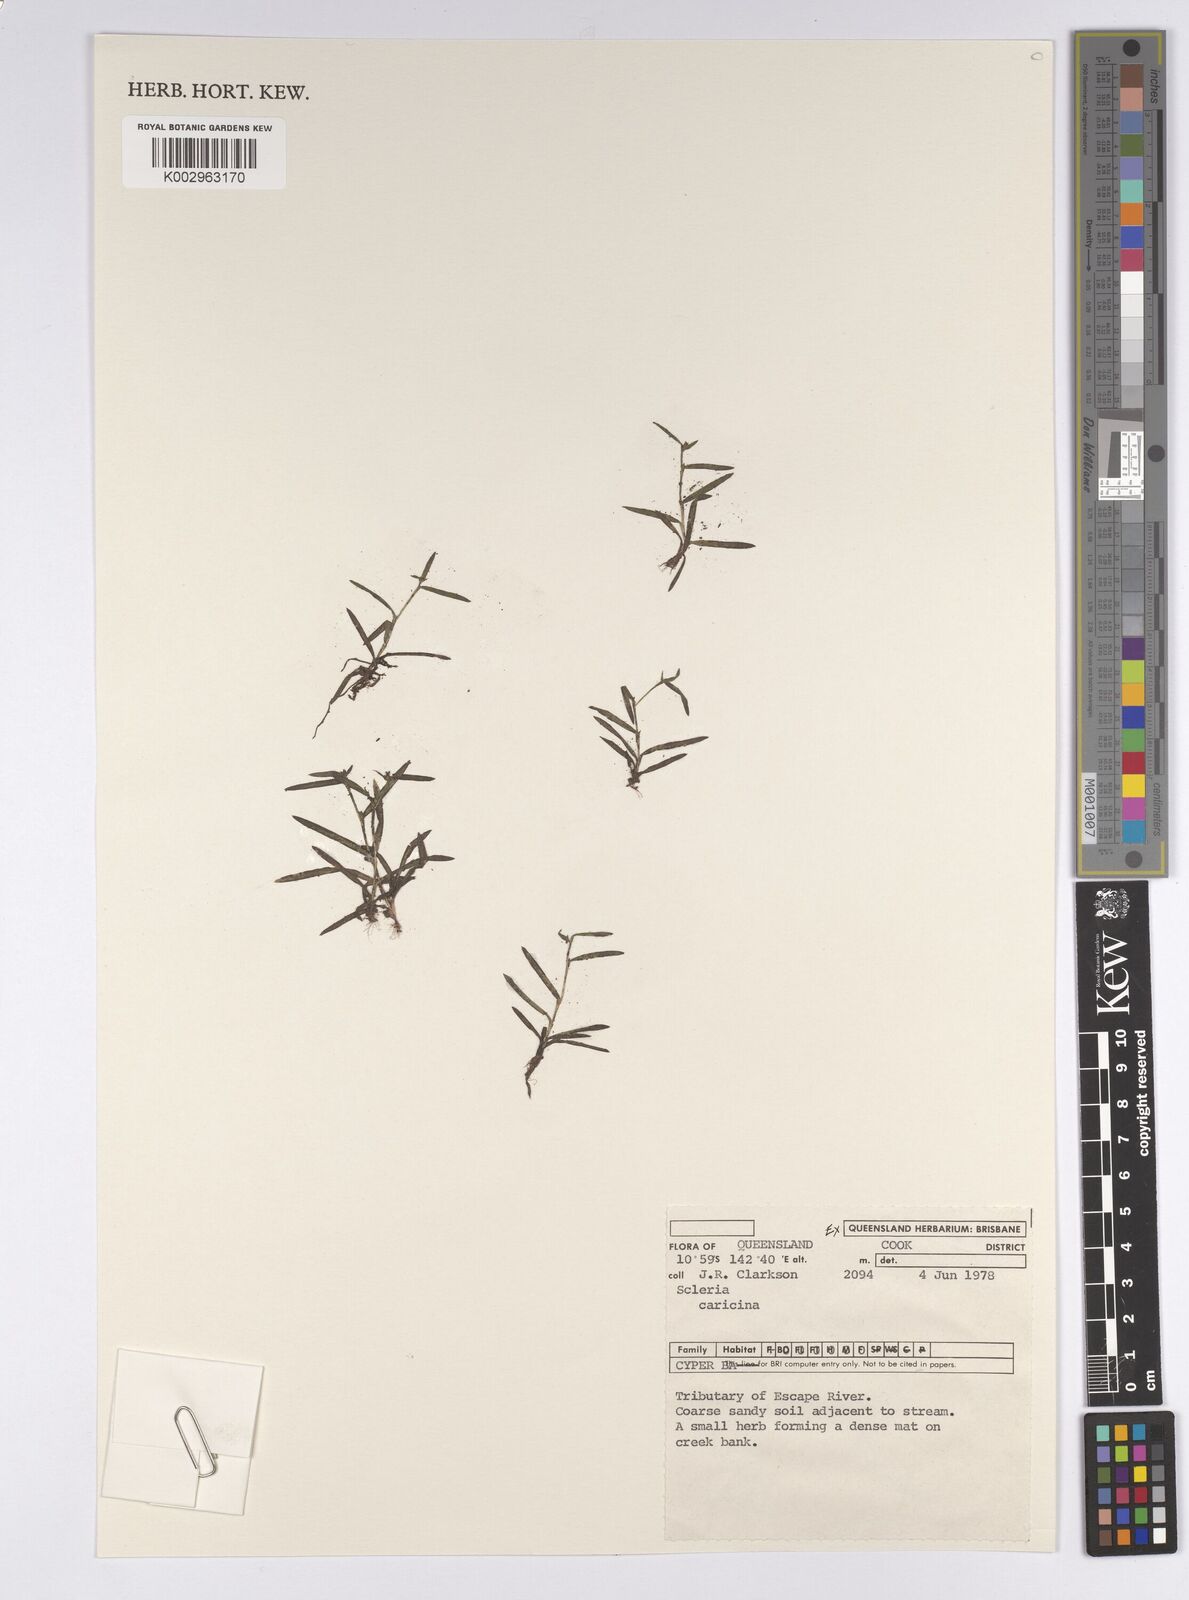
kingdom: Plantae
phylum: Tracheophyta
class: Liliopsida
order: Poales
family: Cyperaceae
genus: Diplacrum
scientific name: Diplacrum caricinum
